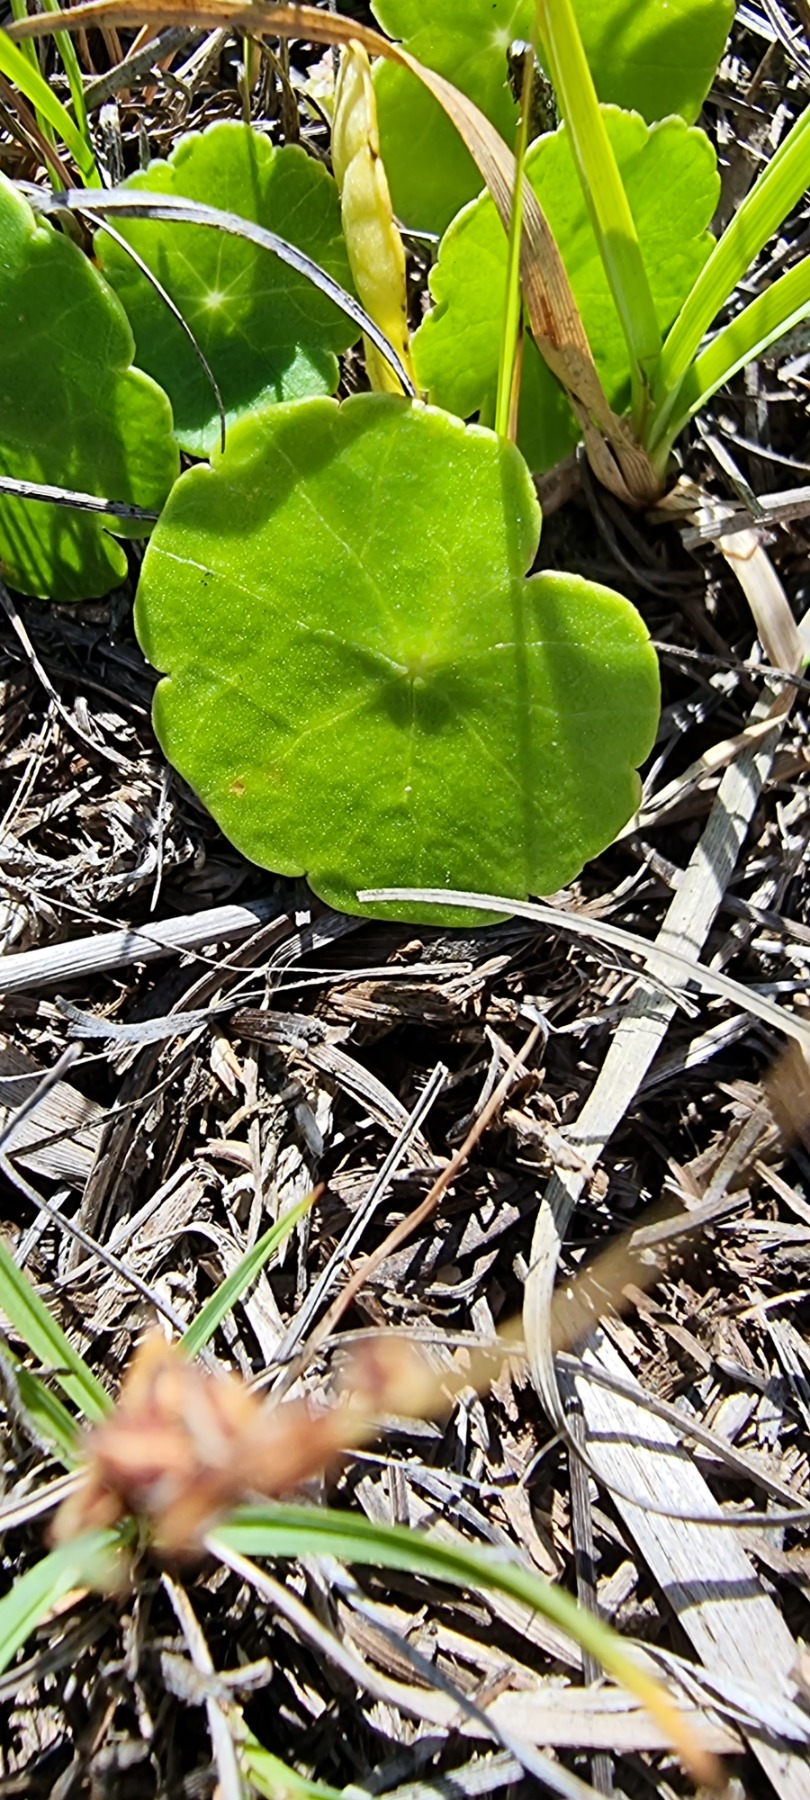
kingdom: Plantae
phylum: Tracheophyta
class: Magnoliopsida
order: Apiales
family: Araliaceae
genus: Hydrocotyle
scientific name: Hydrocotyle vulgaris
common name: Vandnavle
